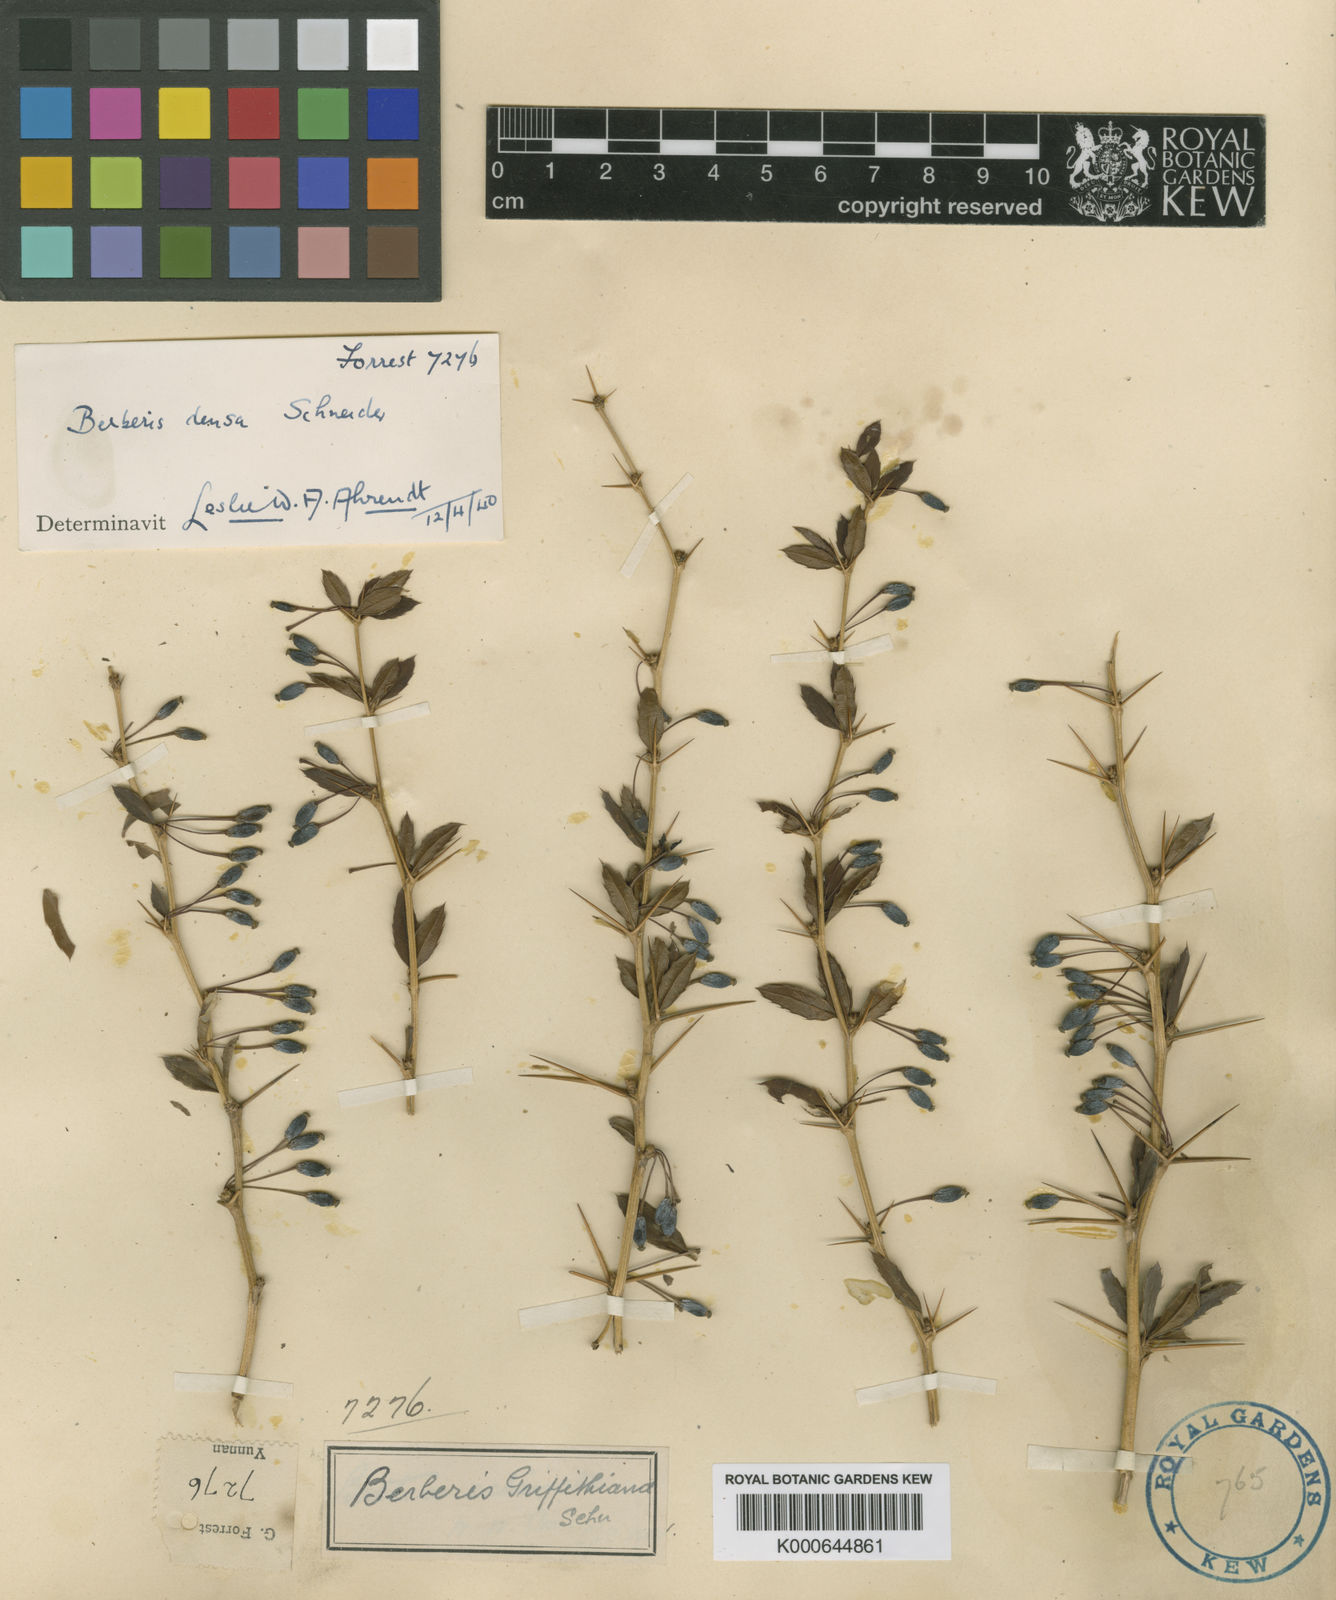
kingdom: Plantae
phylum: Tracheophyta
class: Magnoliopsida
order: Ranunculales
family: Berberidaceae
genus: Berberis
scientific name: Berberis davidii
